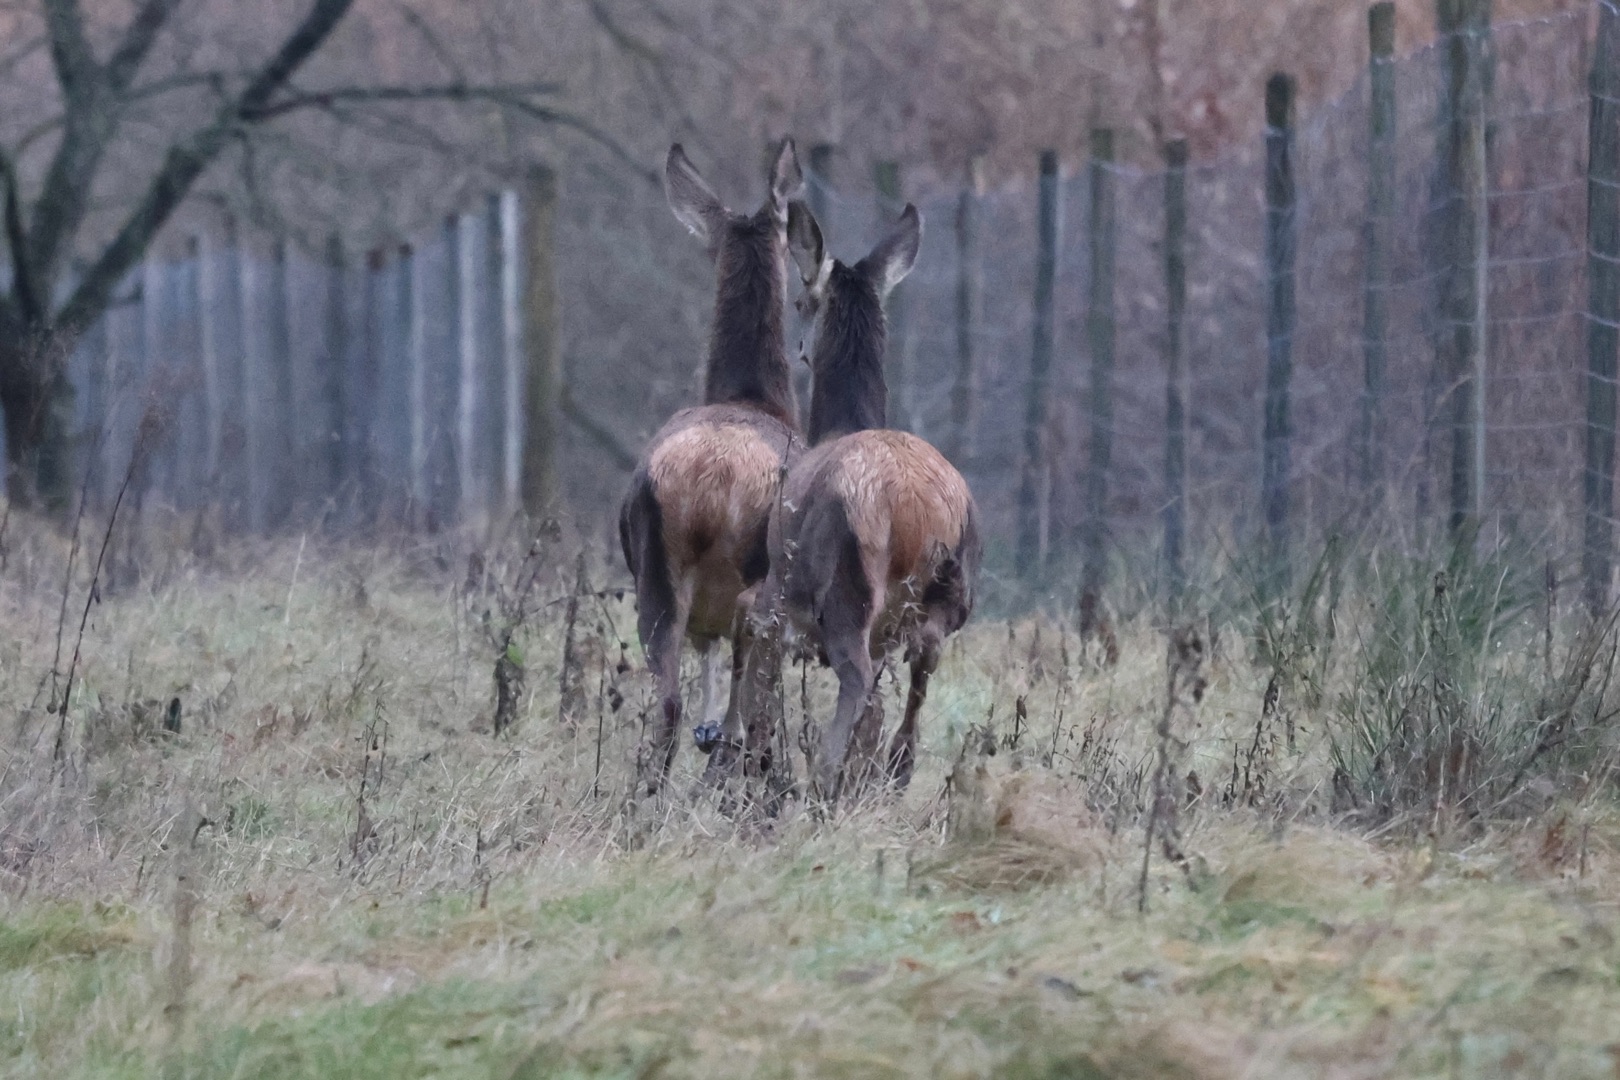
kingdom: Animalia
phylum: Chordata
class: Mammalia
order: Artiodactyla
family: Cervidae
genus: Cervus
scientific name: Cervus elaphus
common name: Krondyr
